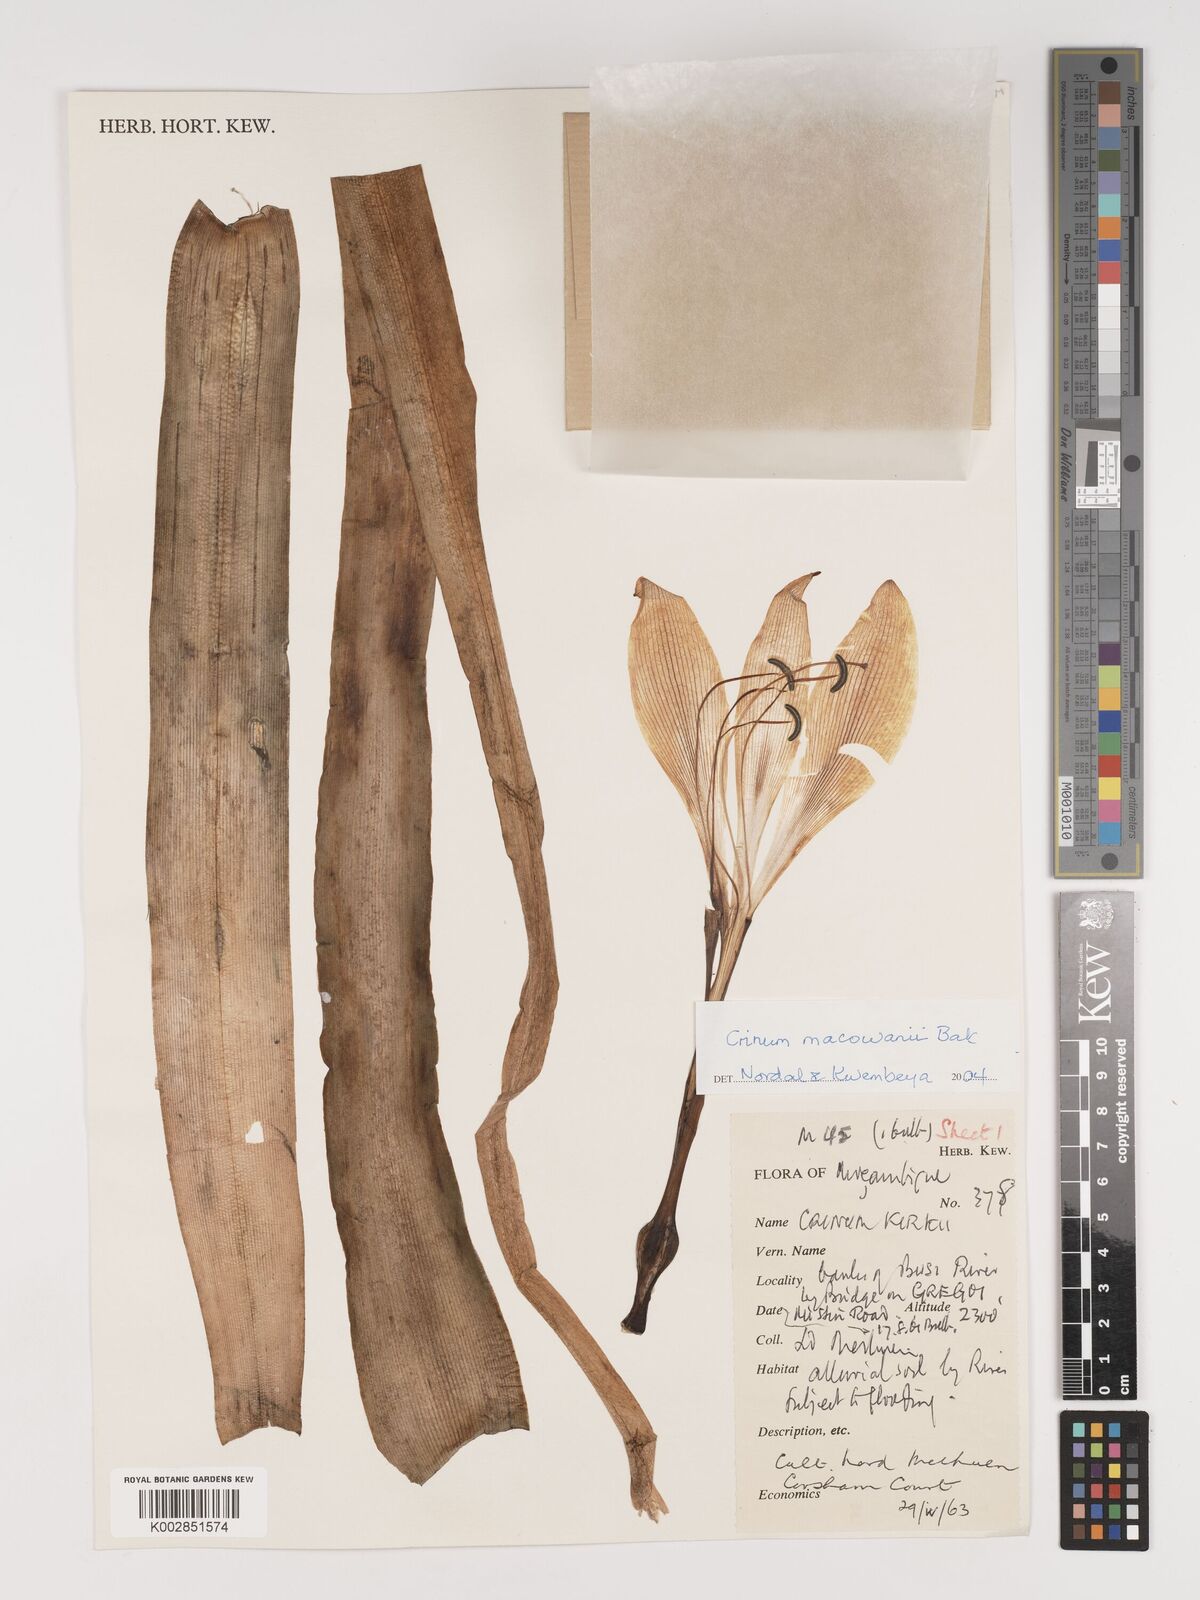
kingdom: Plantae
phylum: Tracheophyta
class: Liliopsida
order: Asparagales
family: Amaryllidaceae
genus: Crinum
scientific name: Crinum macowanii
